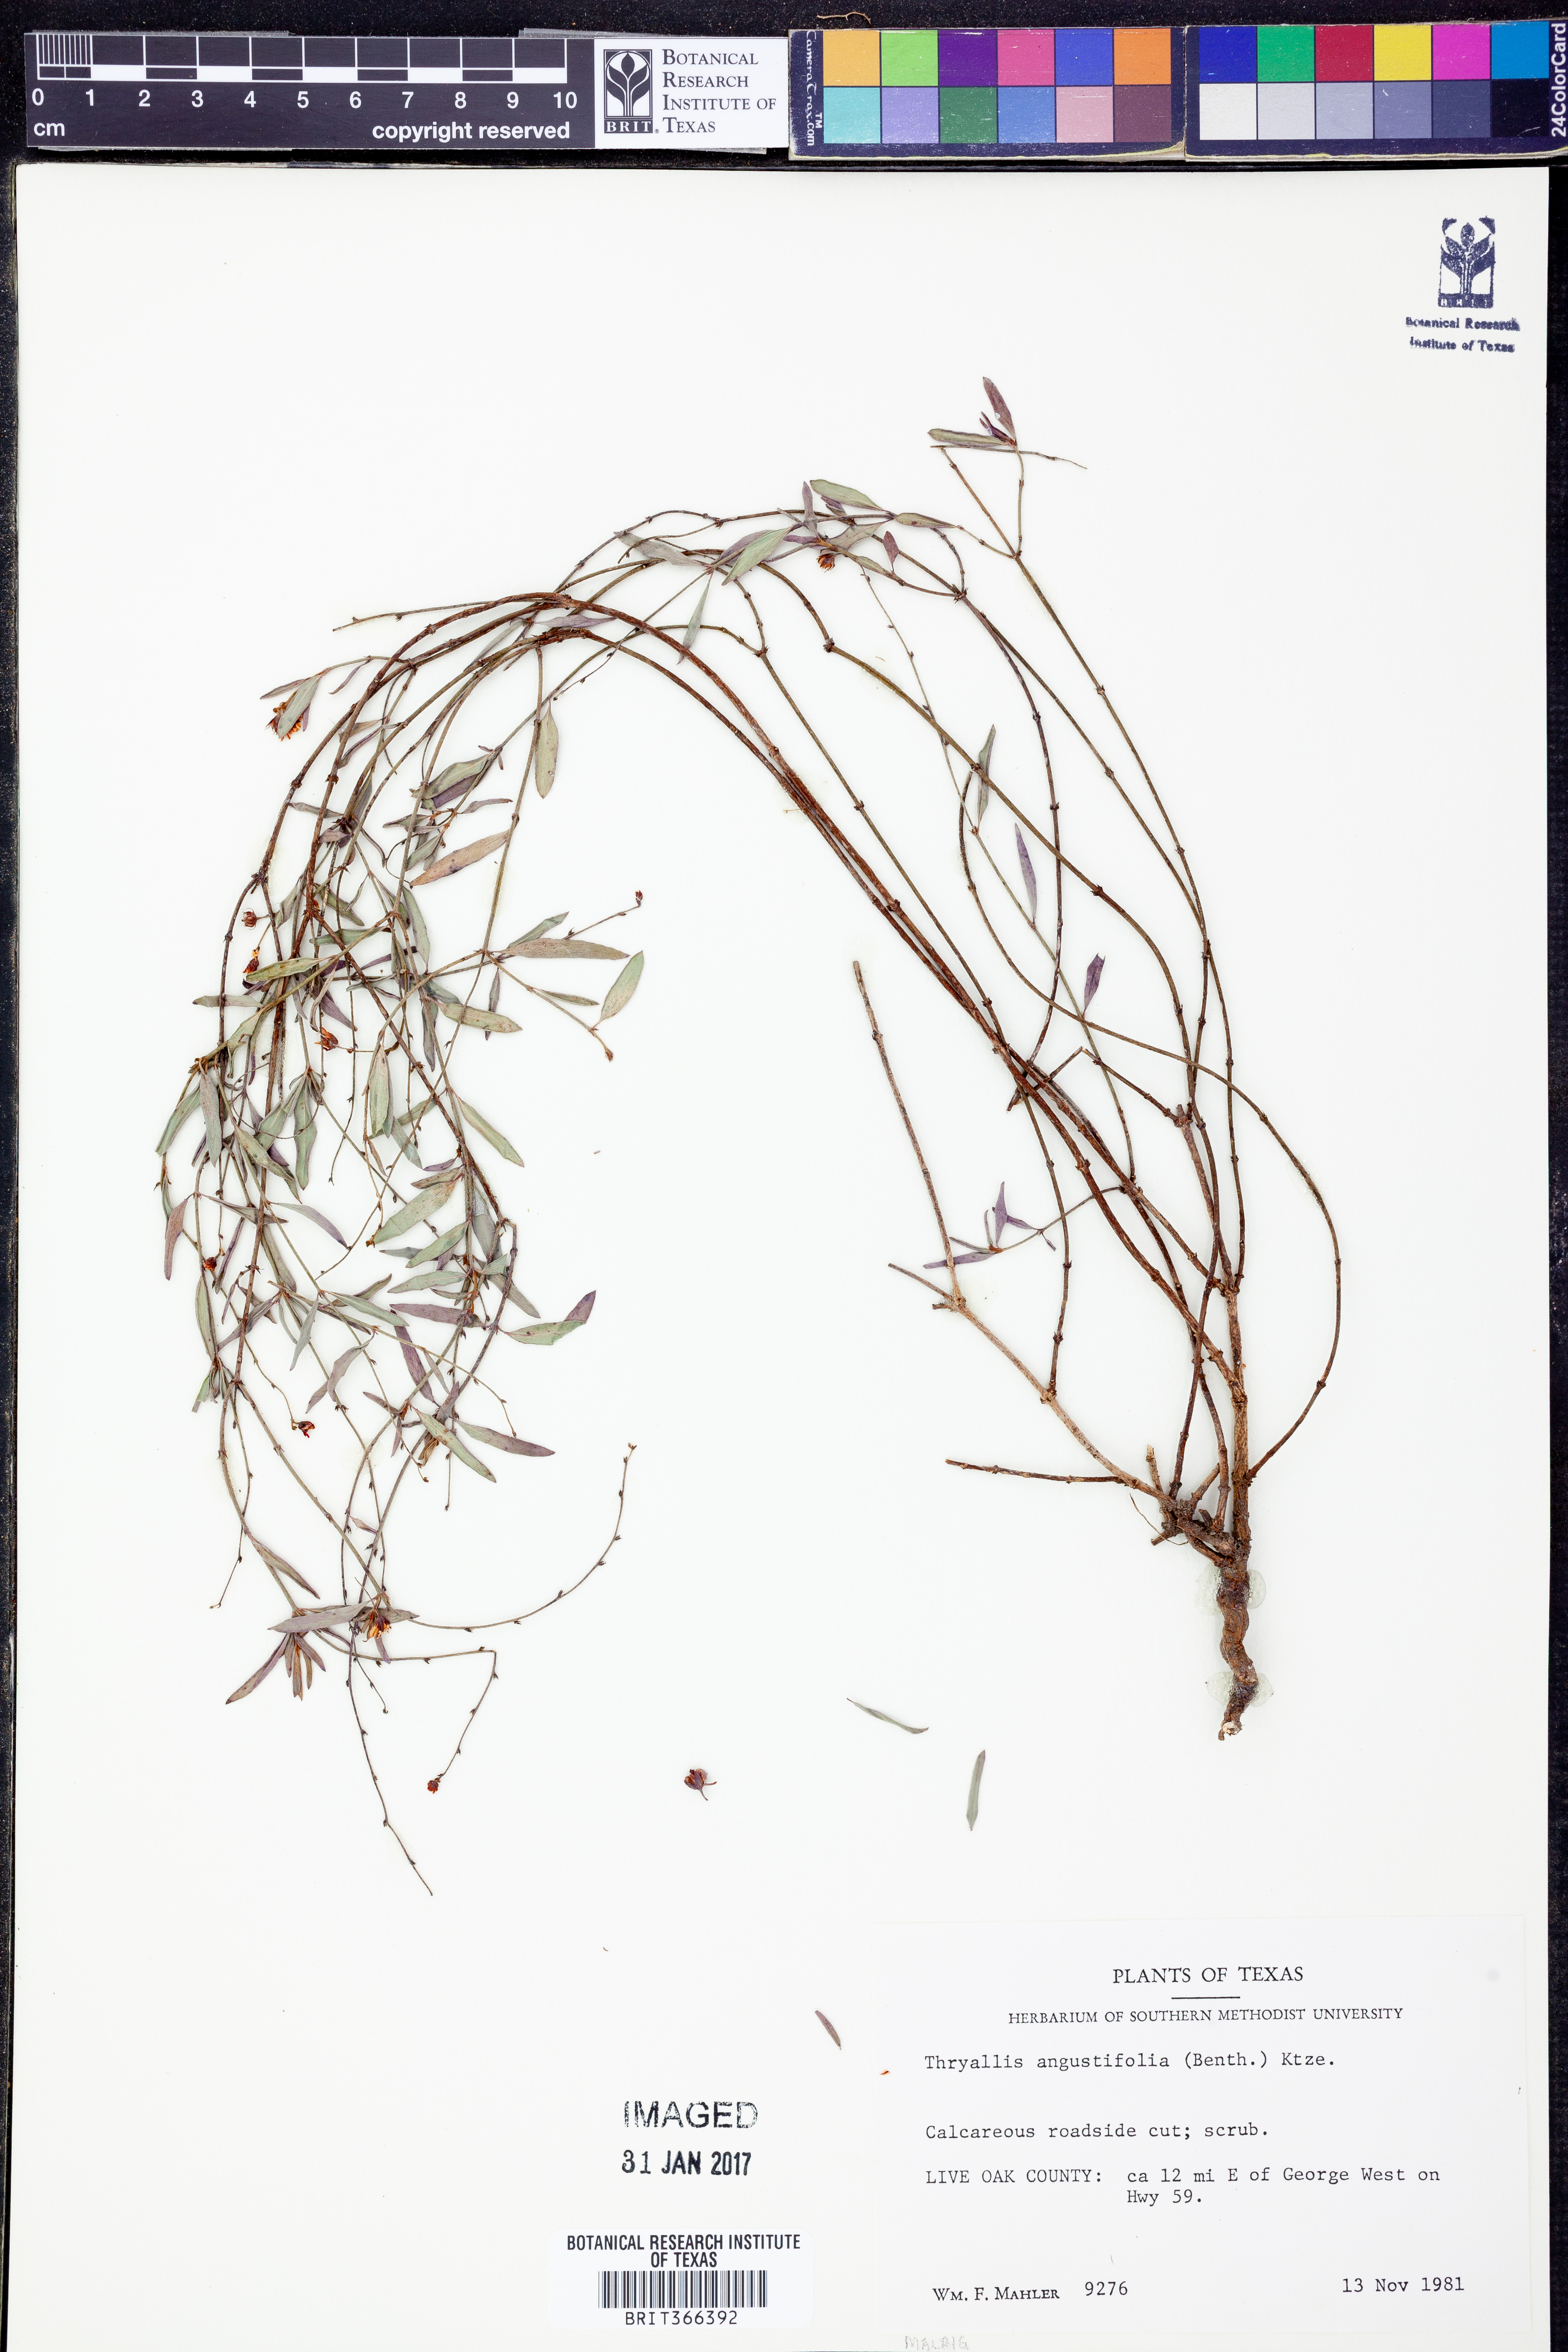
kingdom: Plantae
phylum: Tracheophyta
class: Magnoliopsida
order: Malpighiales
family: Malpighiaceae
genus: Galphimia
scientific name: Galphimia angustifolia
